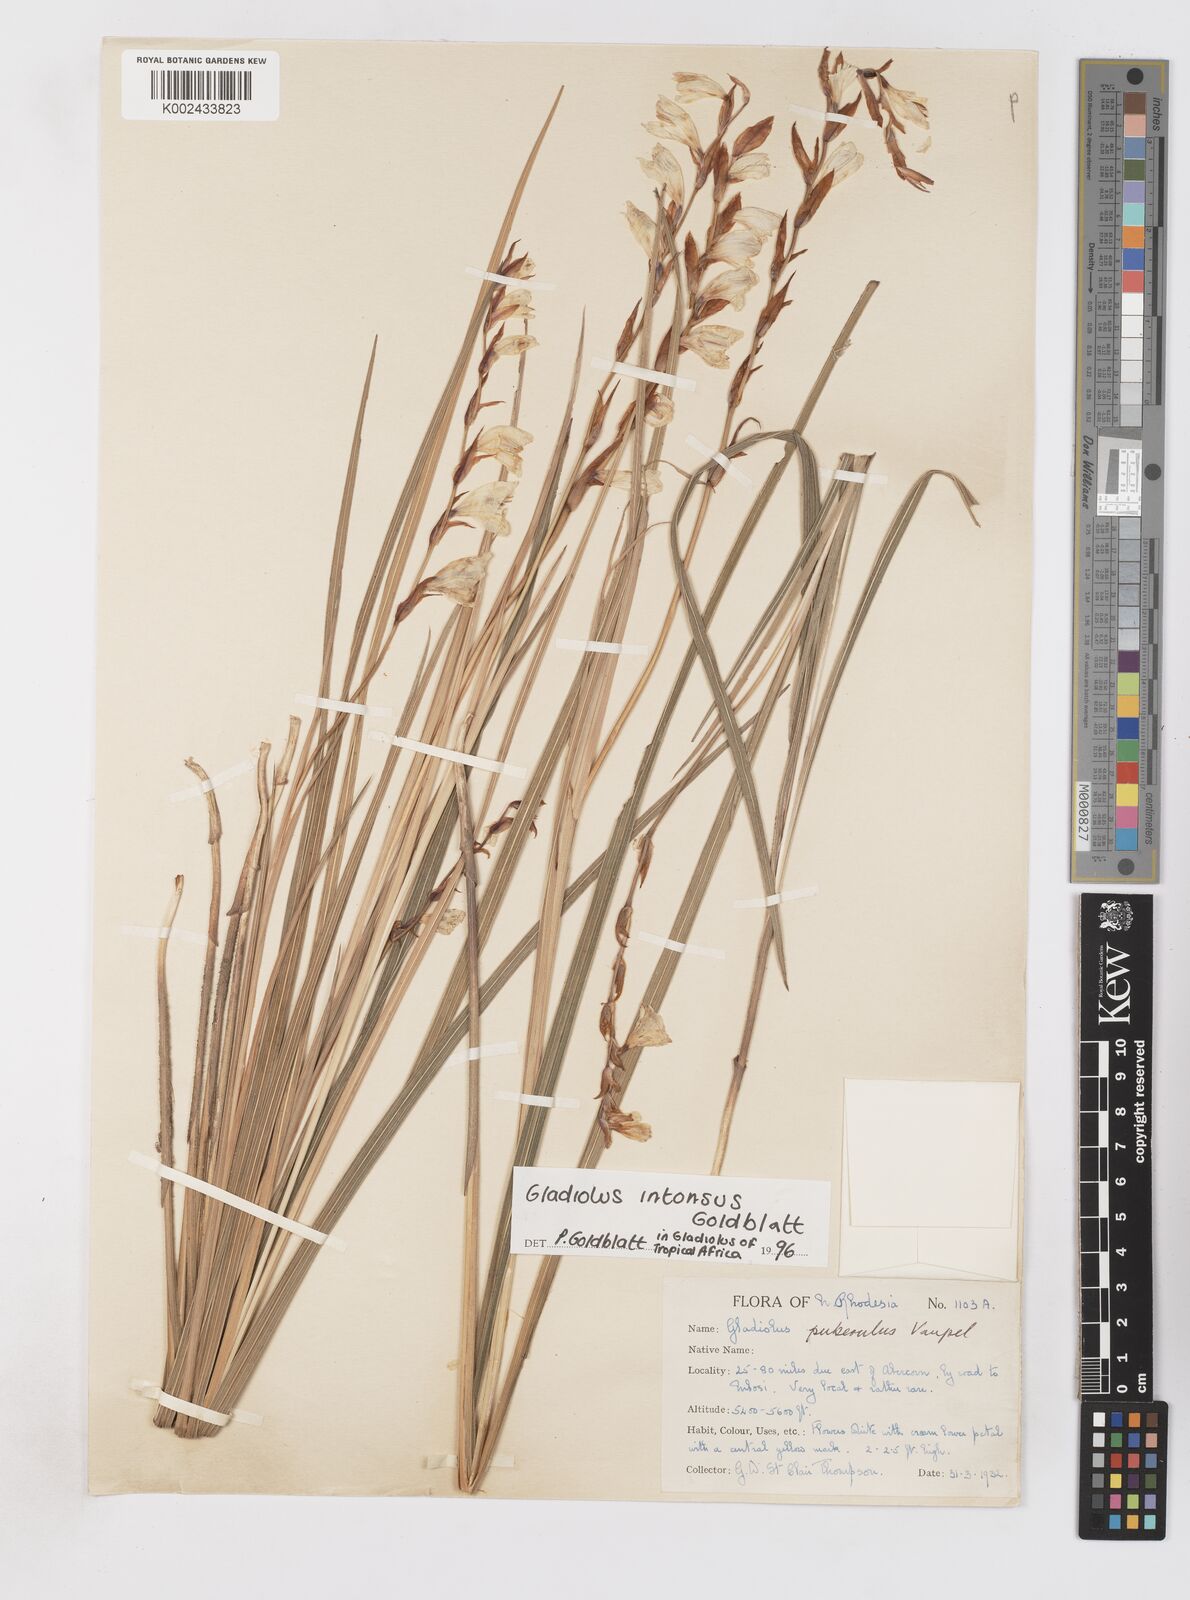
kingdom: Plantae
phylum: Tracheophyta
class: Liliopsida
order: Asparagales
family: Iridaceae
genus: Gladiolus
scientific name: Gladiolus intonsus
